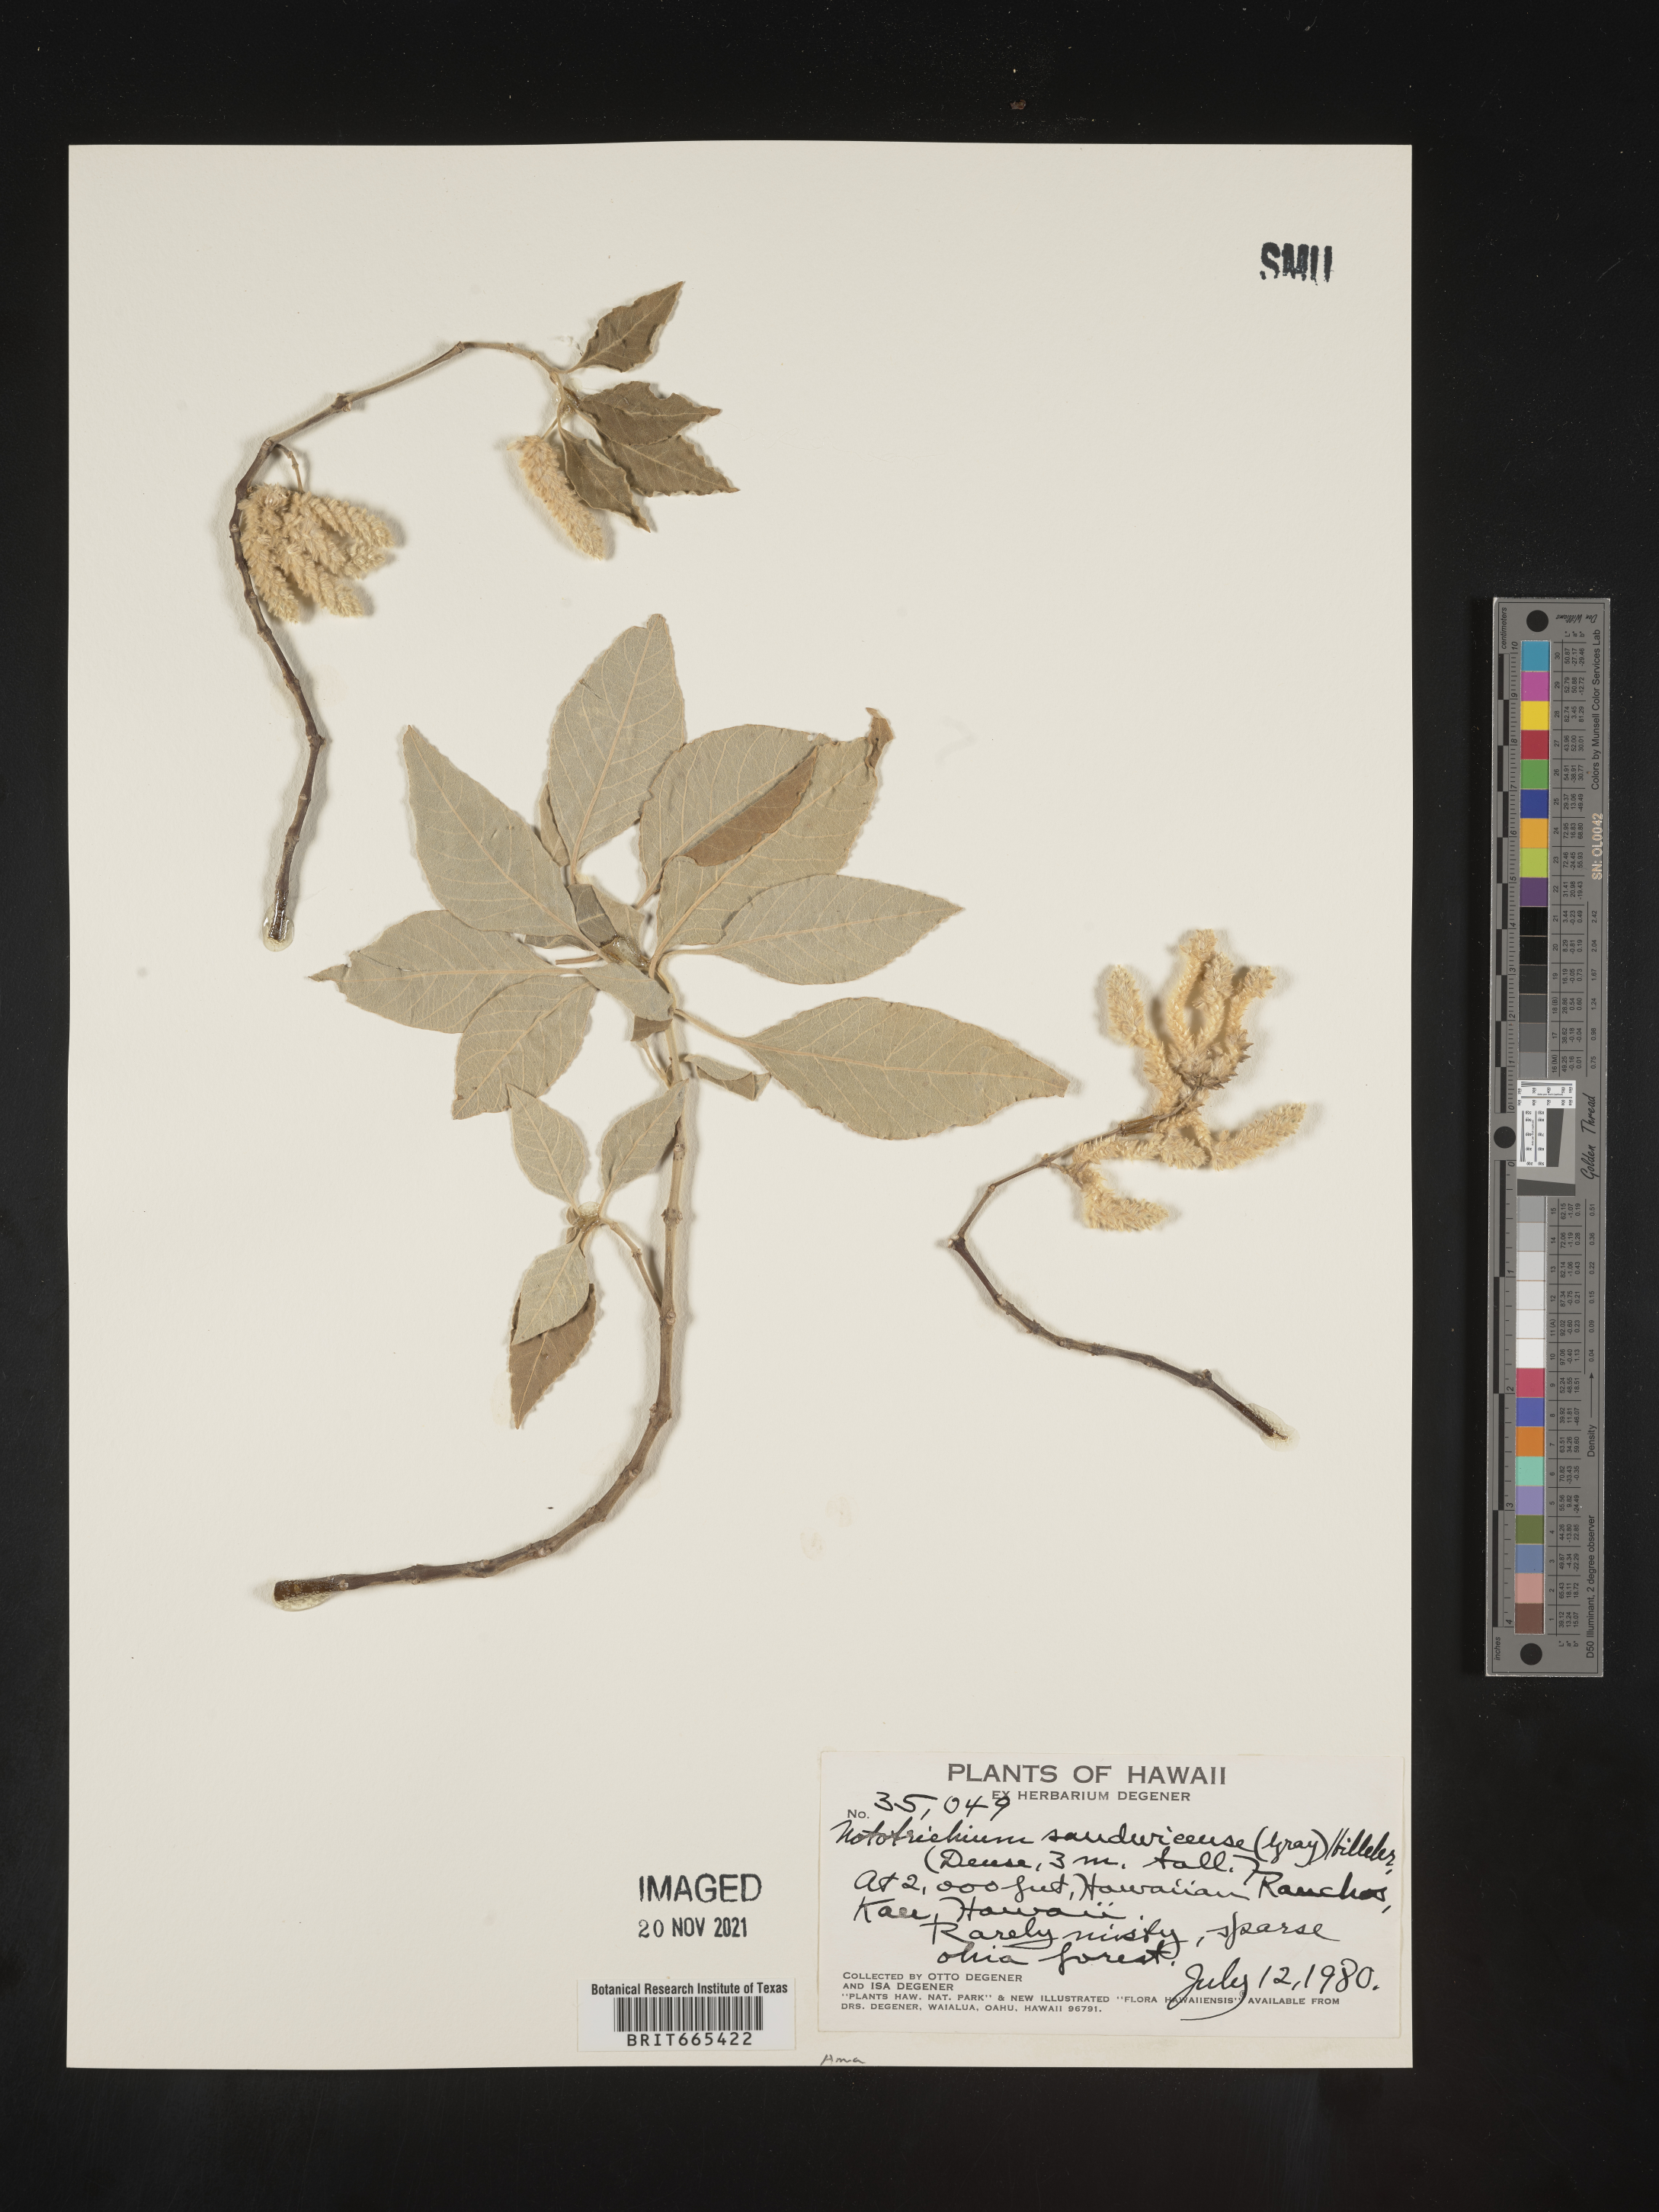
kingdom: Plantae
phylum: Tracheophyta
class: Magnoliopsida
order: Caryophyllales
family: Amaranthaceae
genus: Nototrichium
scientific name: Nototrichium
